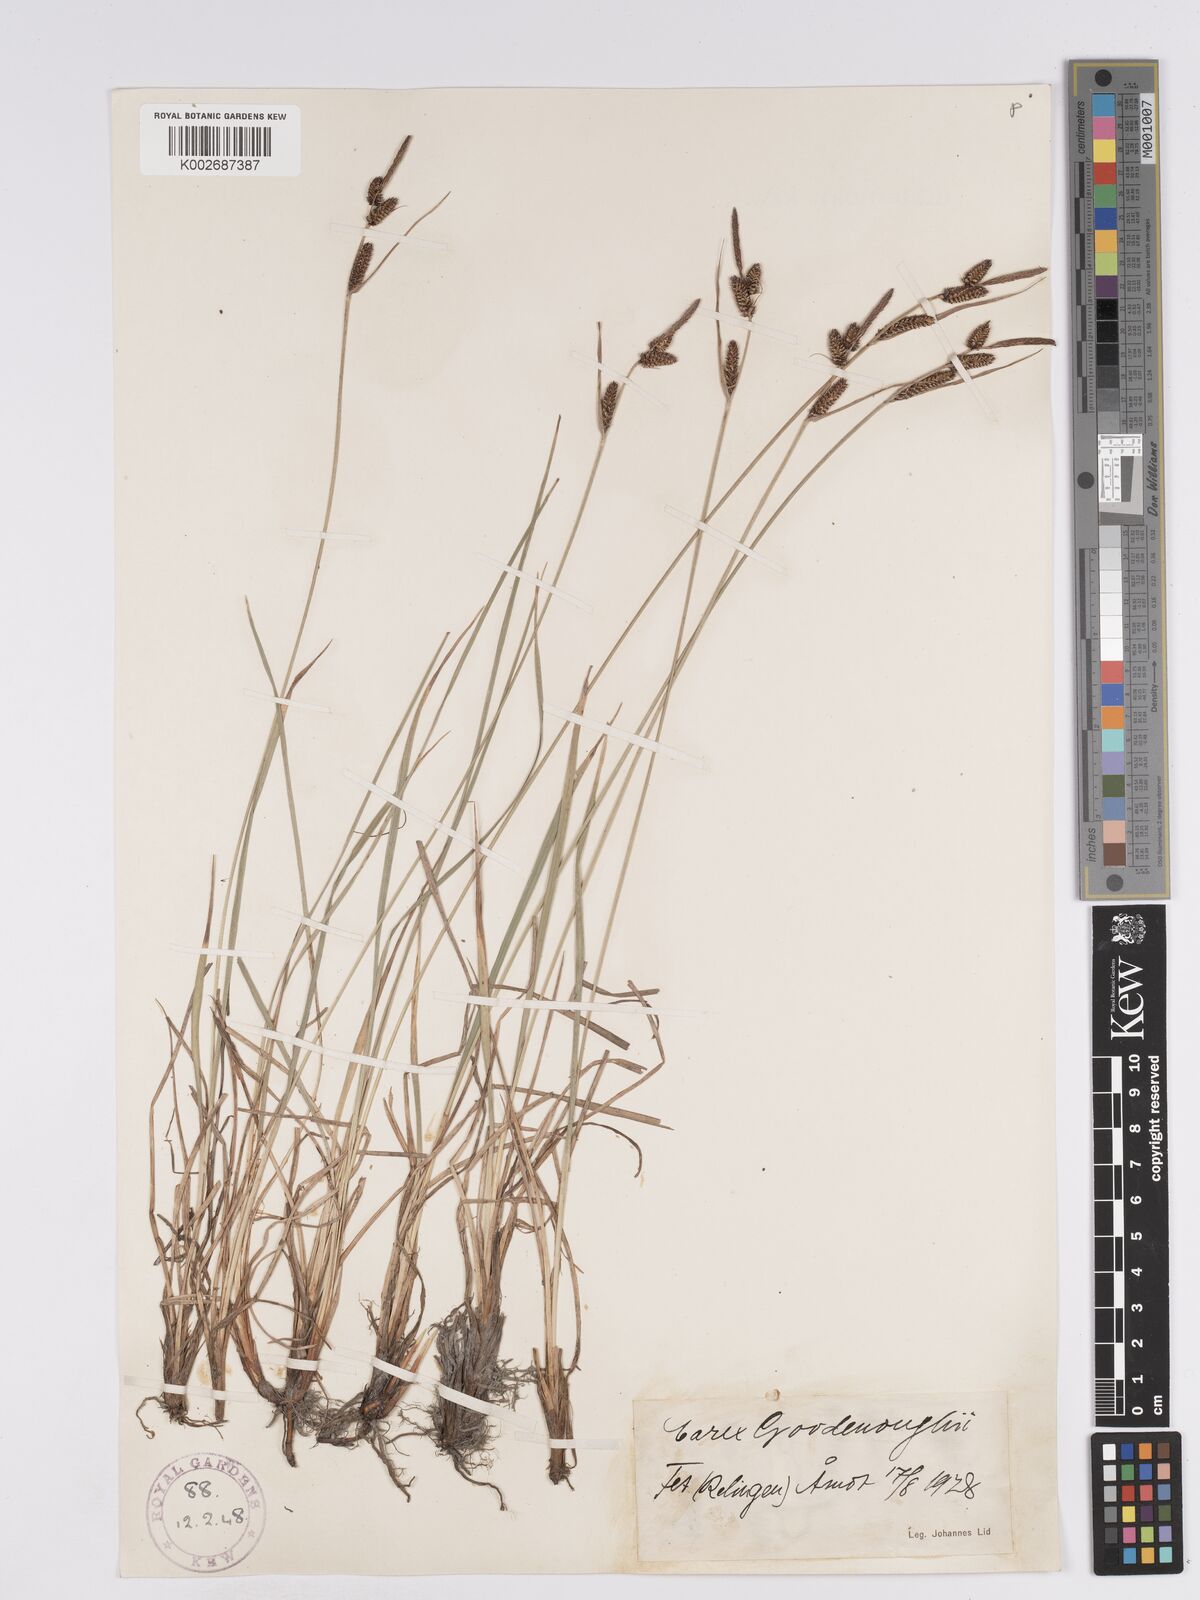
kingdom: Plantae
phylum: Tracheophyta
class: Liliopsida
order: Poales
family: Cyperaceae
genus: Carex
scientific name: Carex nigra
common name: Common sedge
